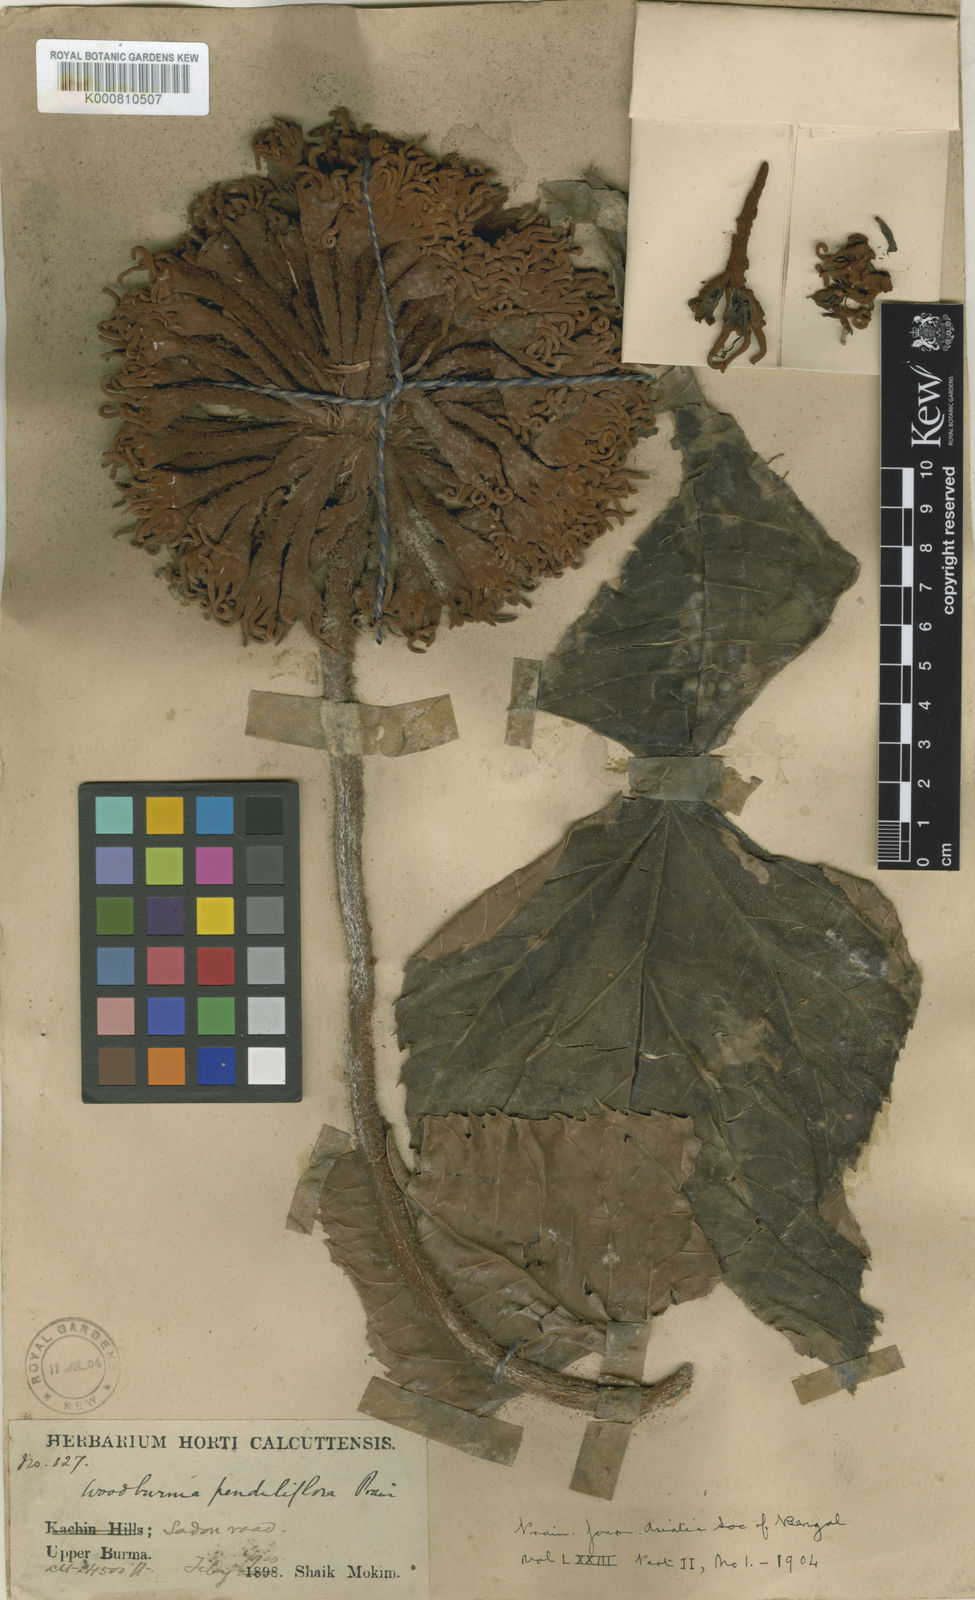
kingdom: Plantae
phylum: Tracheophyta
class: Magnoliopsida
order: Apiales
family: Araliaceae
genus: Woodburnia
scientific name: Woodburnia penduliflora
